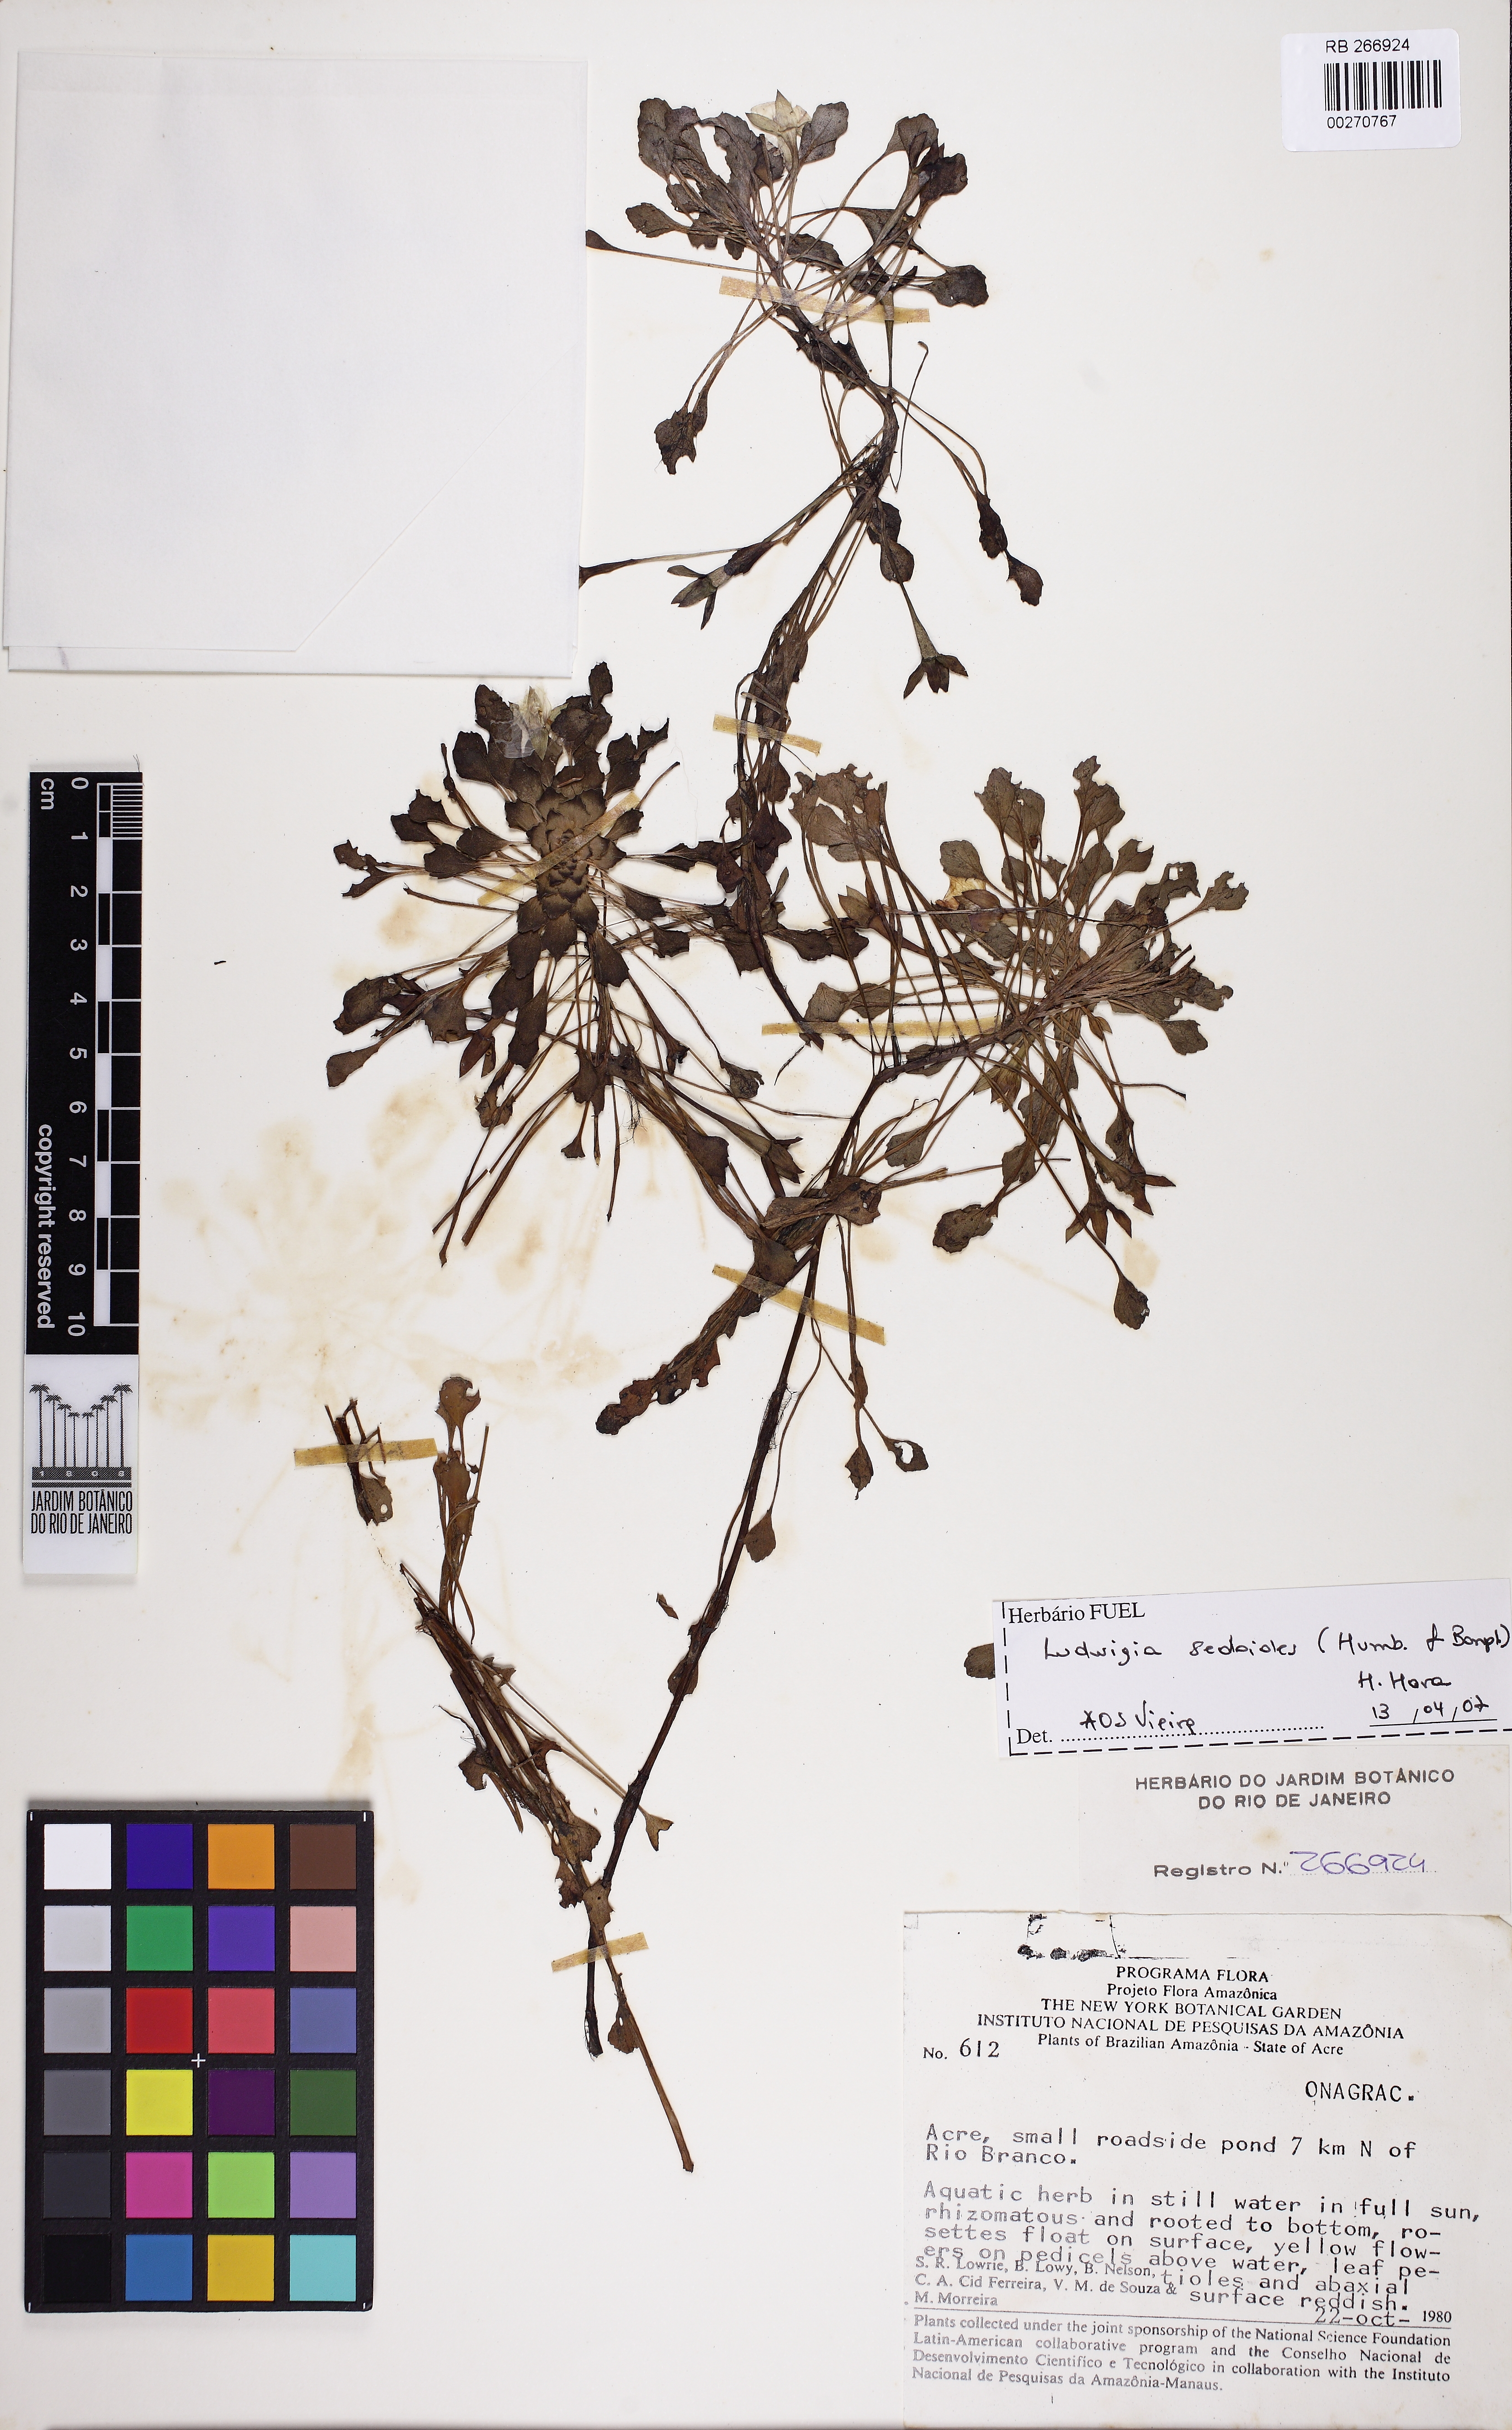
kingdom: Plantae
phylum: Tracheophyta
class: Magnoliopsida
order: Myrtales
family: Onagraceae
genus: Ludwigia
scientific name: Ludwigia sedioides
